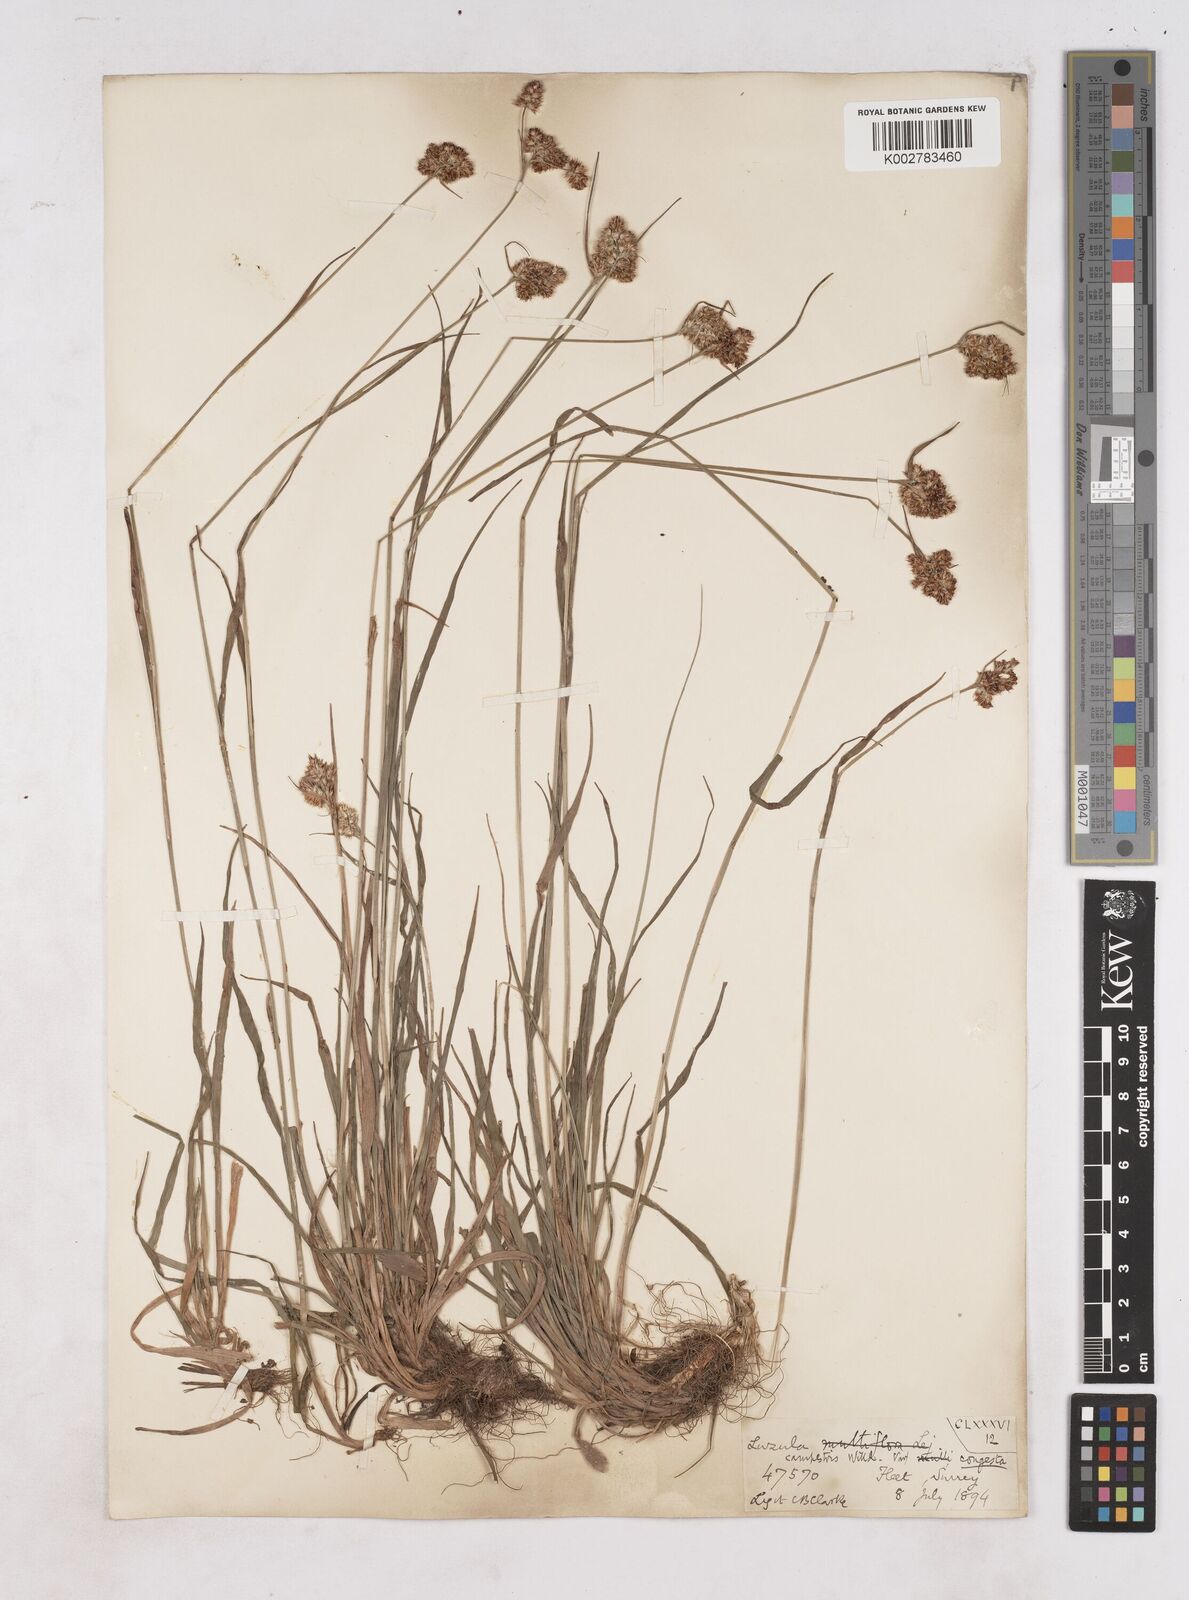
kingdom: Plantae
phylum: Tracheophyta
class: Liliopsida
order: Poales
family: Juncaceae
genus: Luzula
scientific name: Luzula campestris
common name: Field wood-rush
